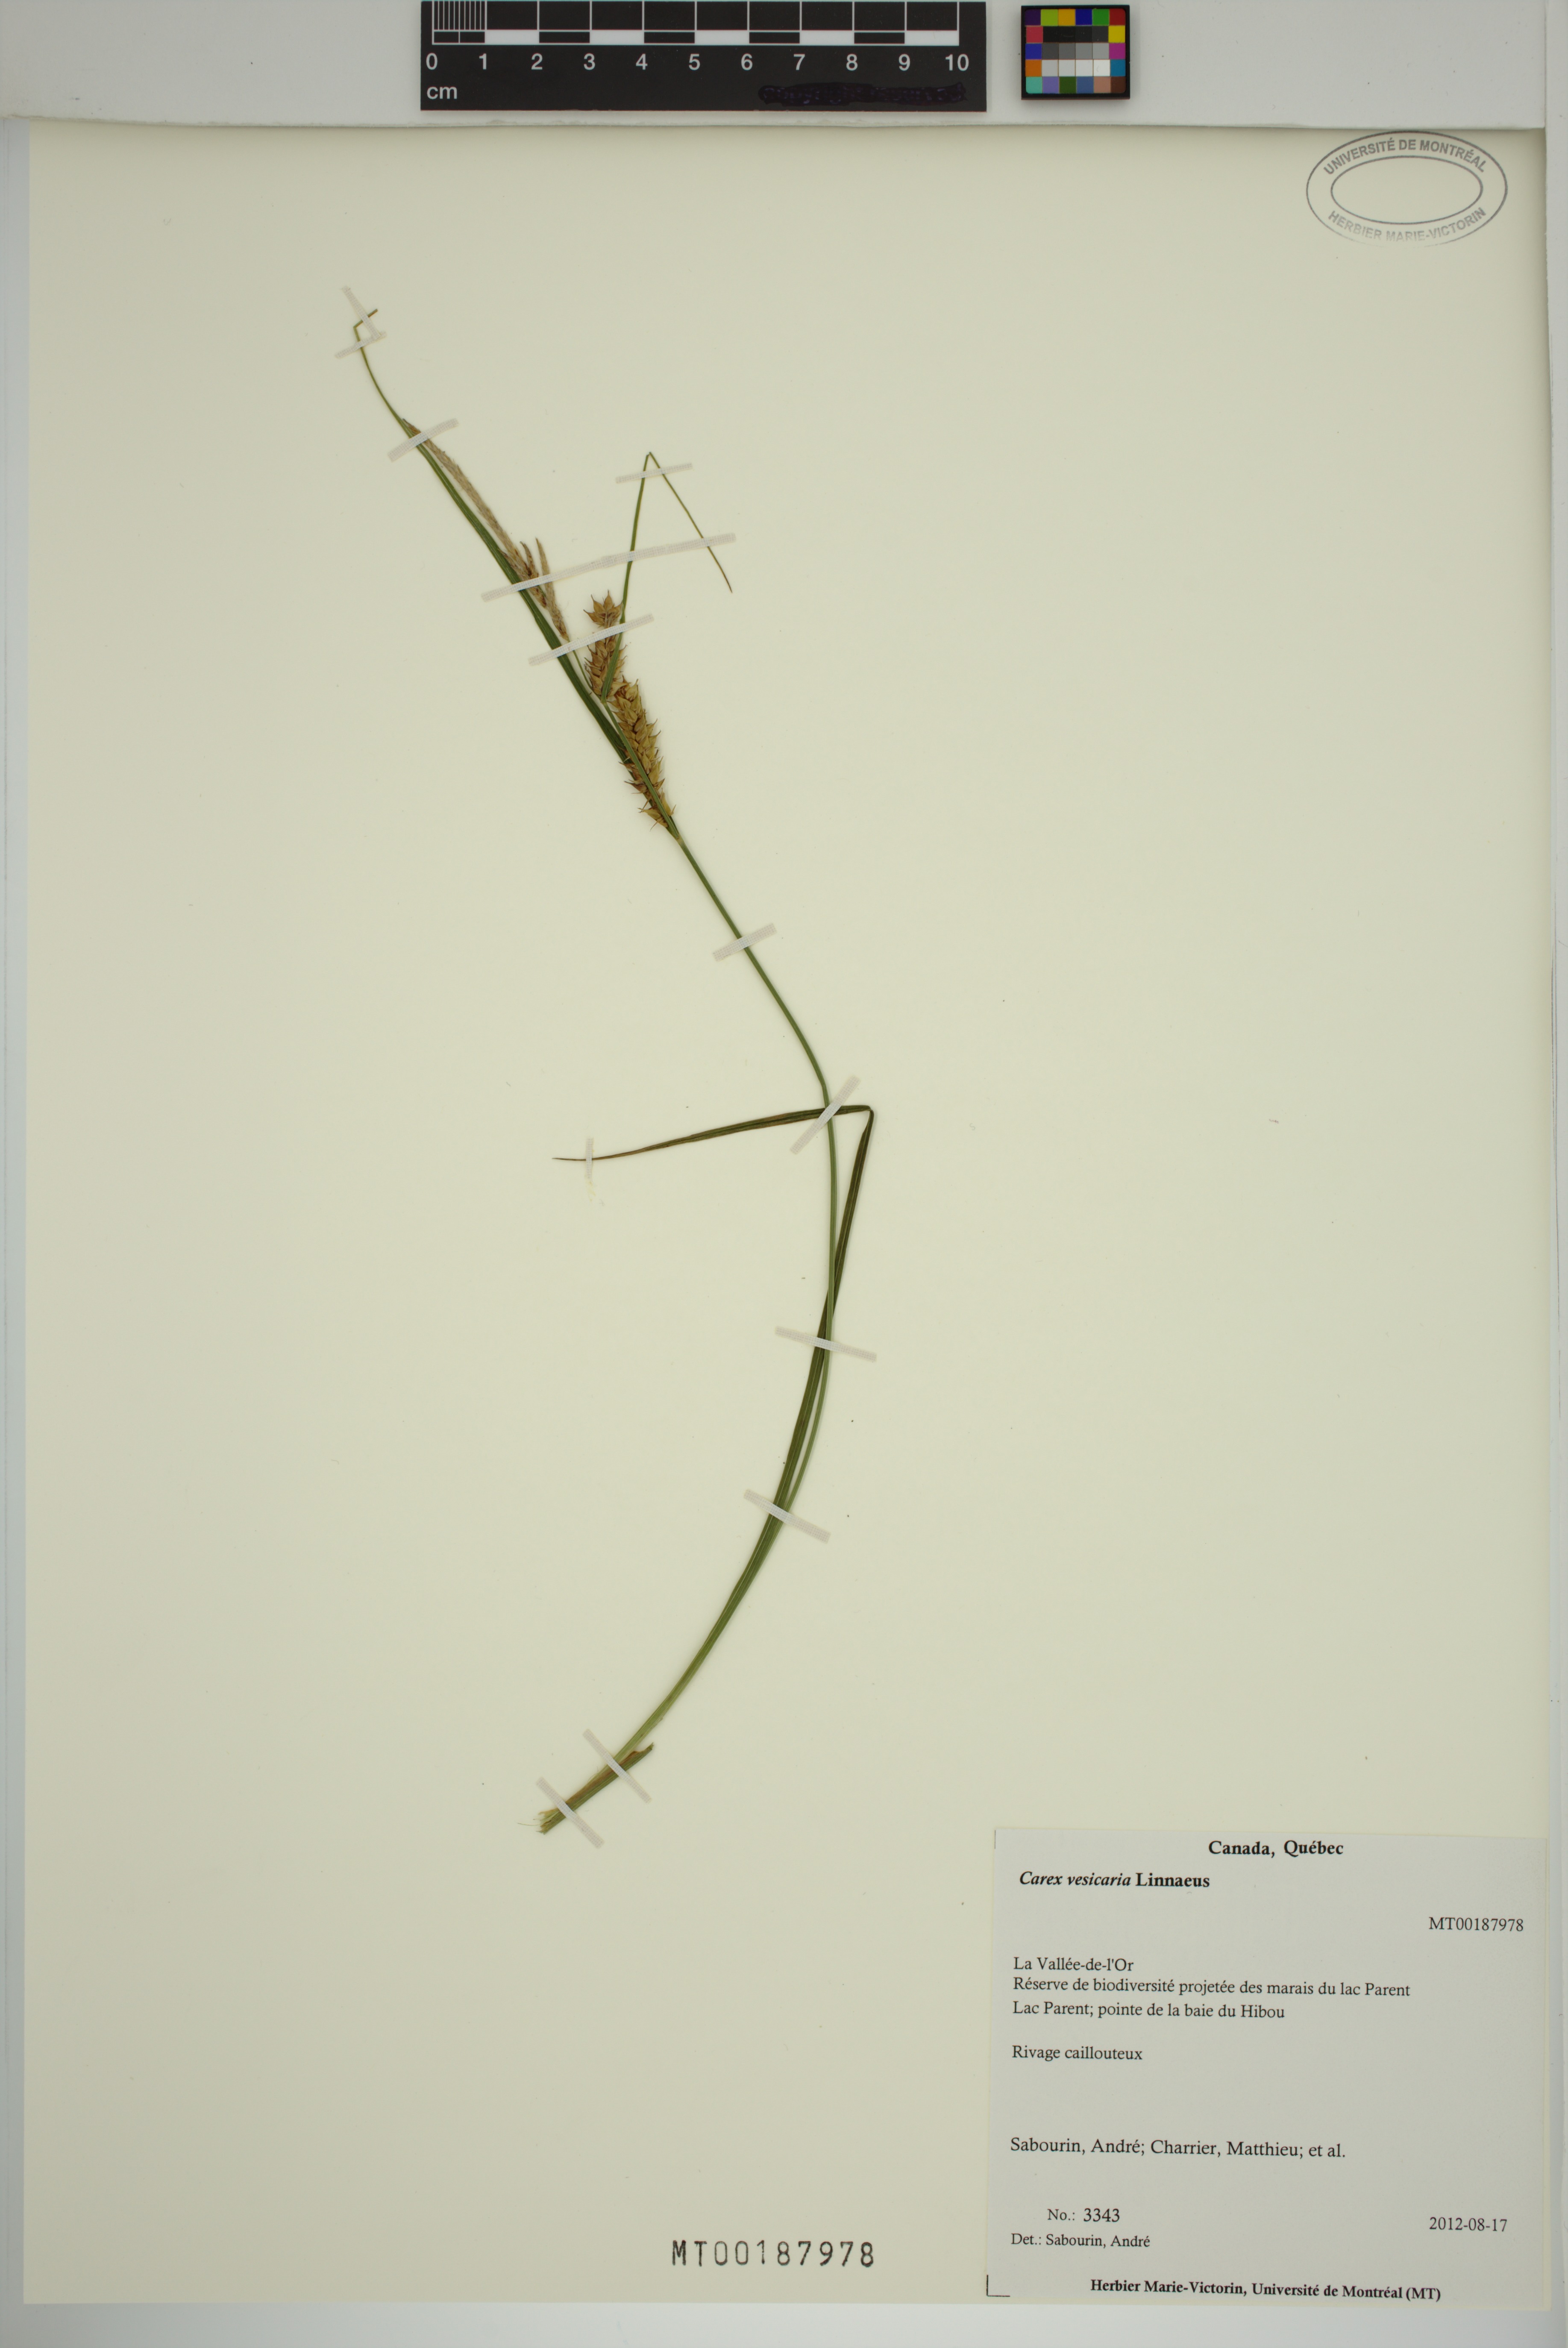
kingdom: Plantae
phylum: Tracheophyta
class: Liliopsida
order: Poales
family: Cyperaceae
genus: Carex
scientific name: Carex vesicaria
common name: Bladder-sedge
